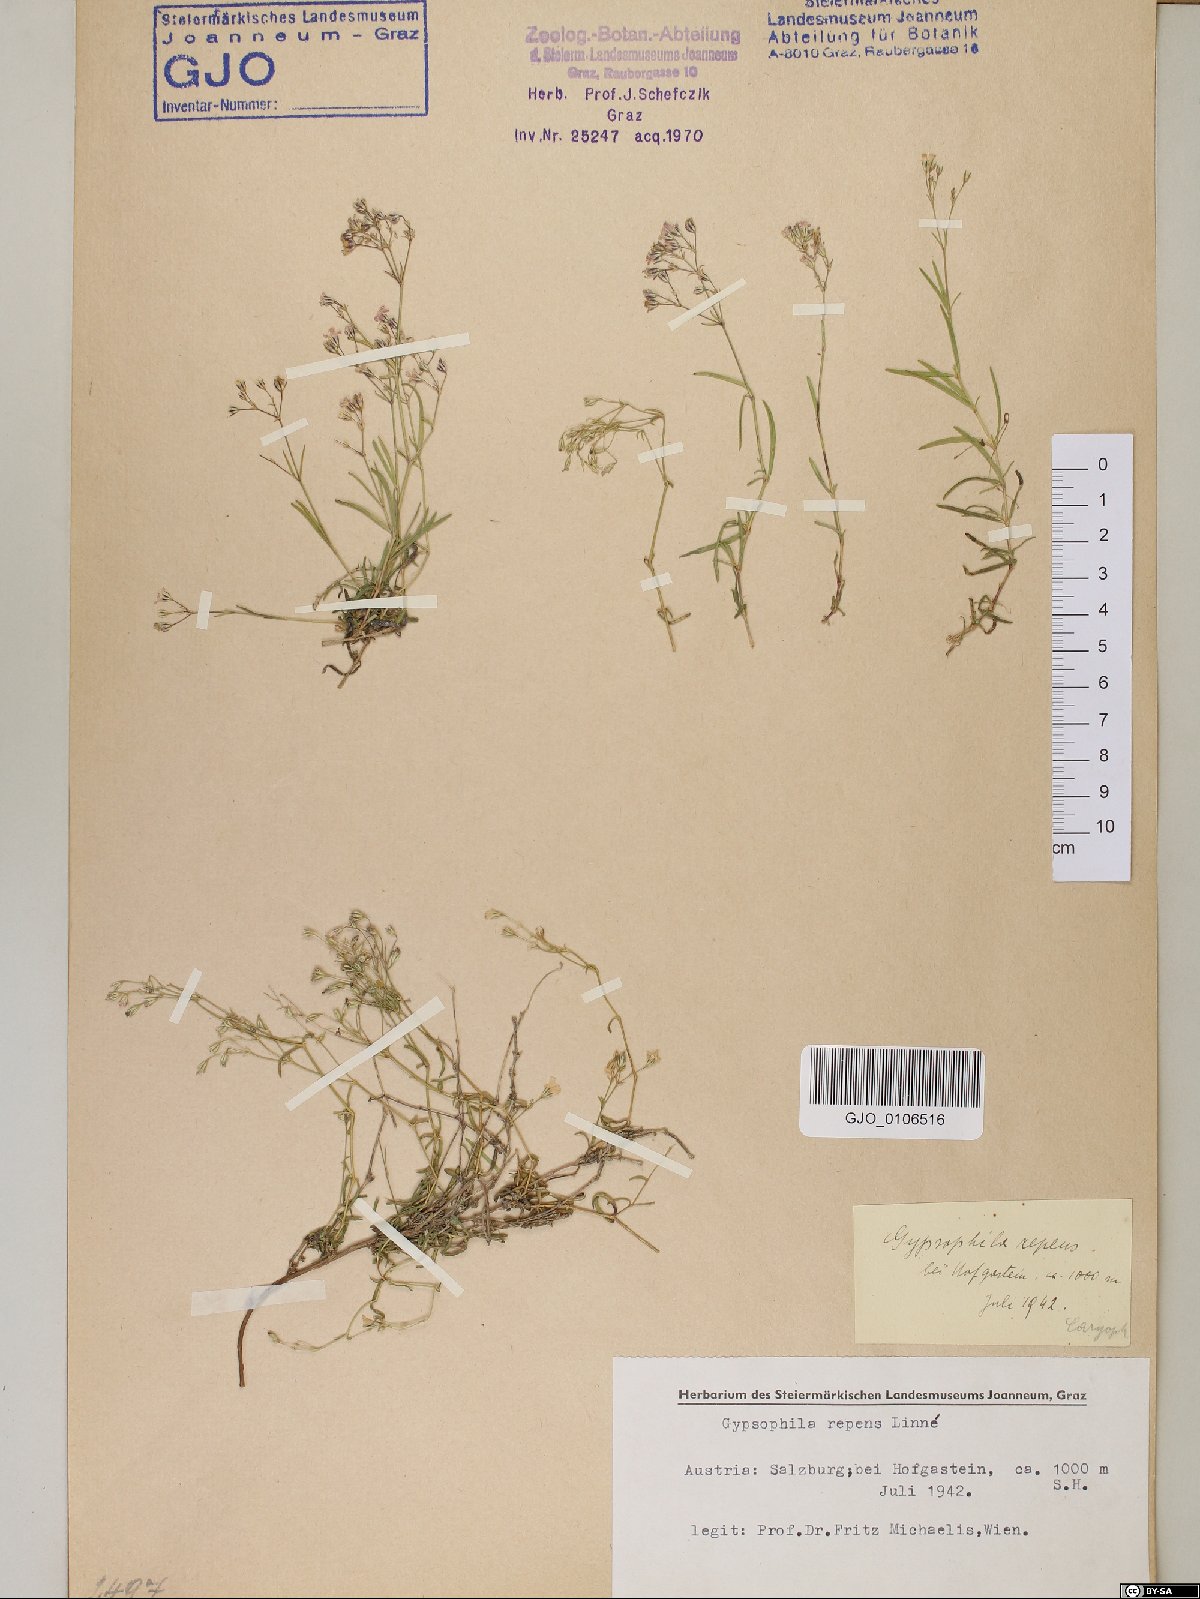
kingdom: Plantae
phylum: Tracheophyta
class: Magnoliopsida
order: Caryophyllales
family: Caryophyllaceae
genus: Gypsophila
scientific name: Gypsophila repens
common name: Creeping baby's-breath
